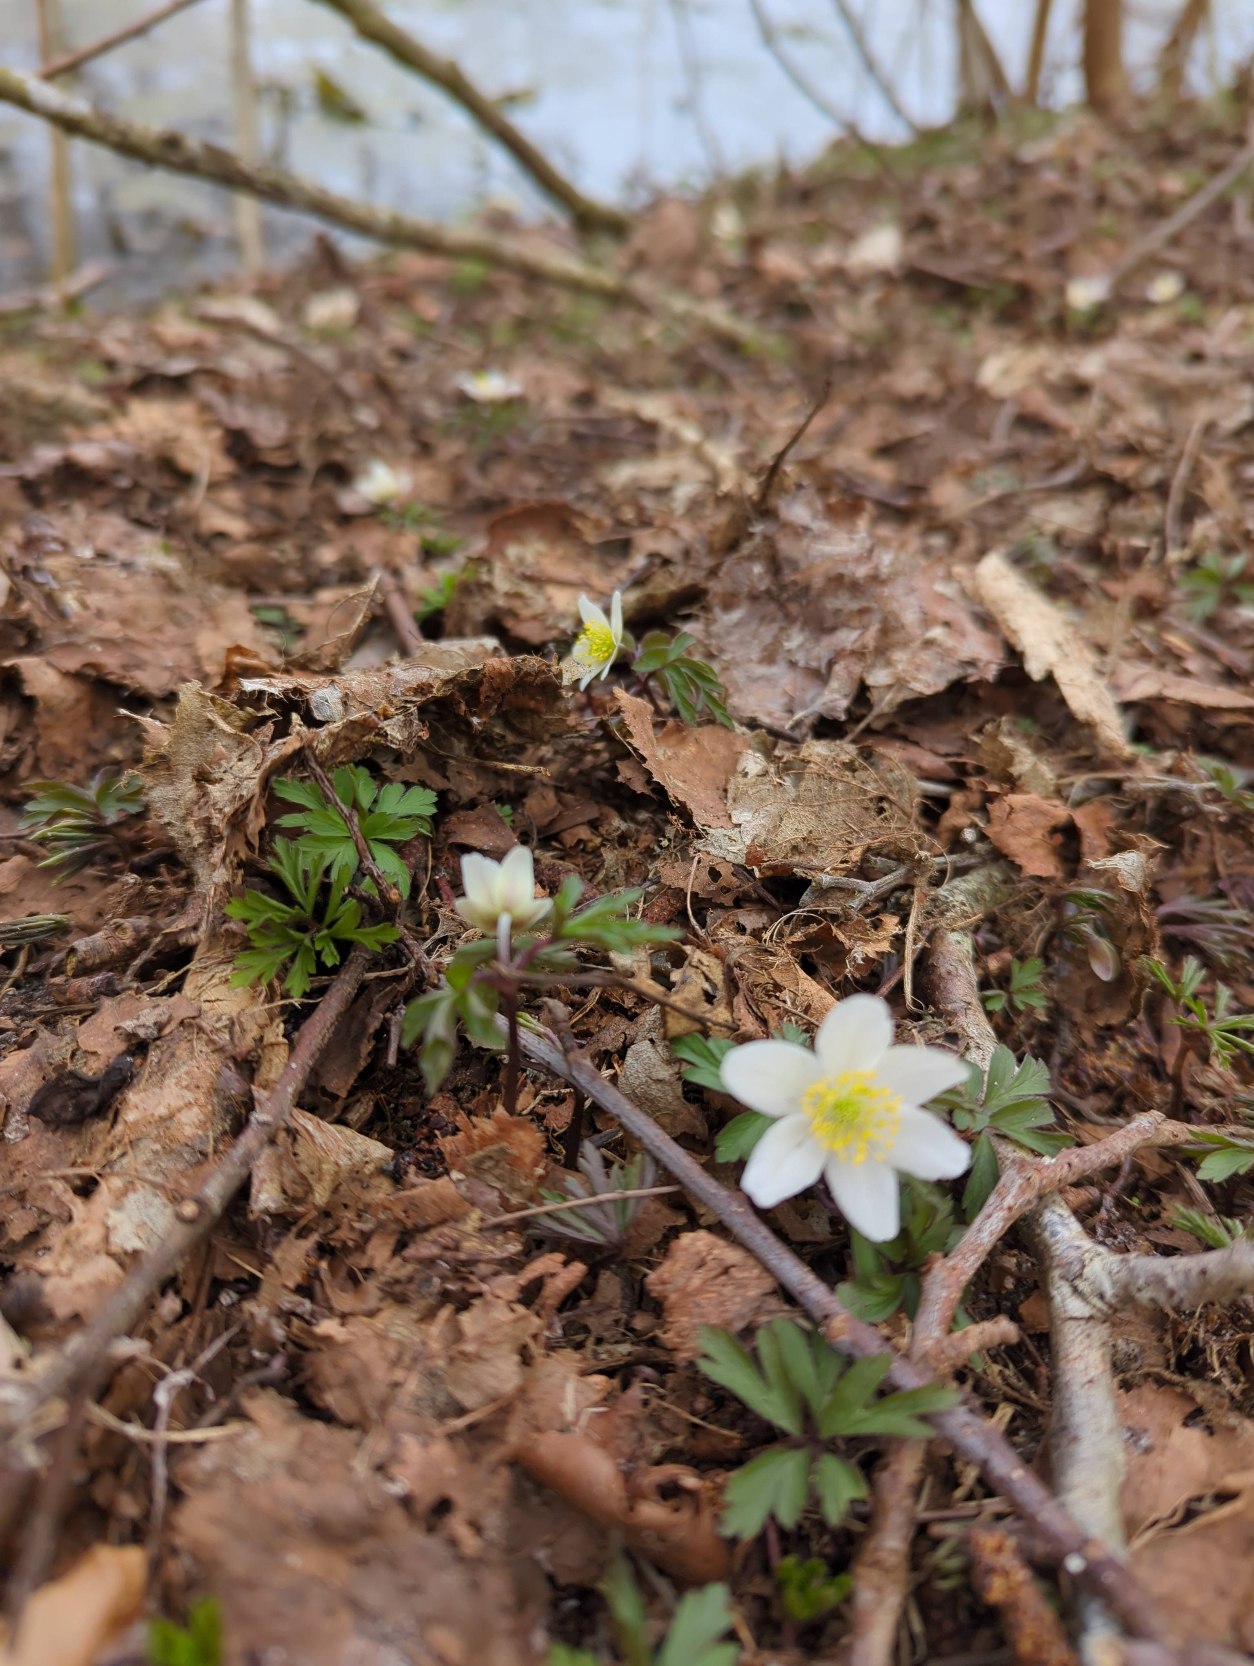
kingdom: Plantae
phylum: Tracheophyta
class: Magnoliopsida
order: Ranunculales
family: Ranunculaceae
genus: Anemone
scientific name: Anemone nemorosa
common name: Hvid anemone
